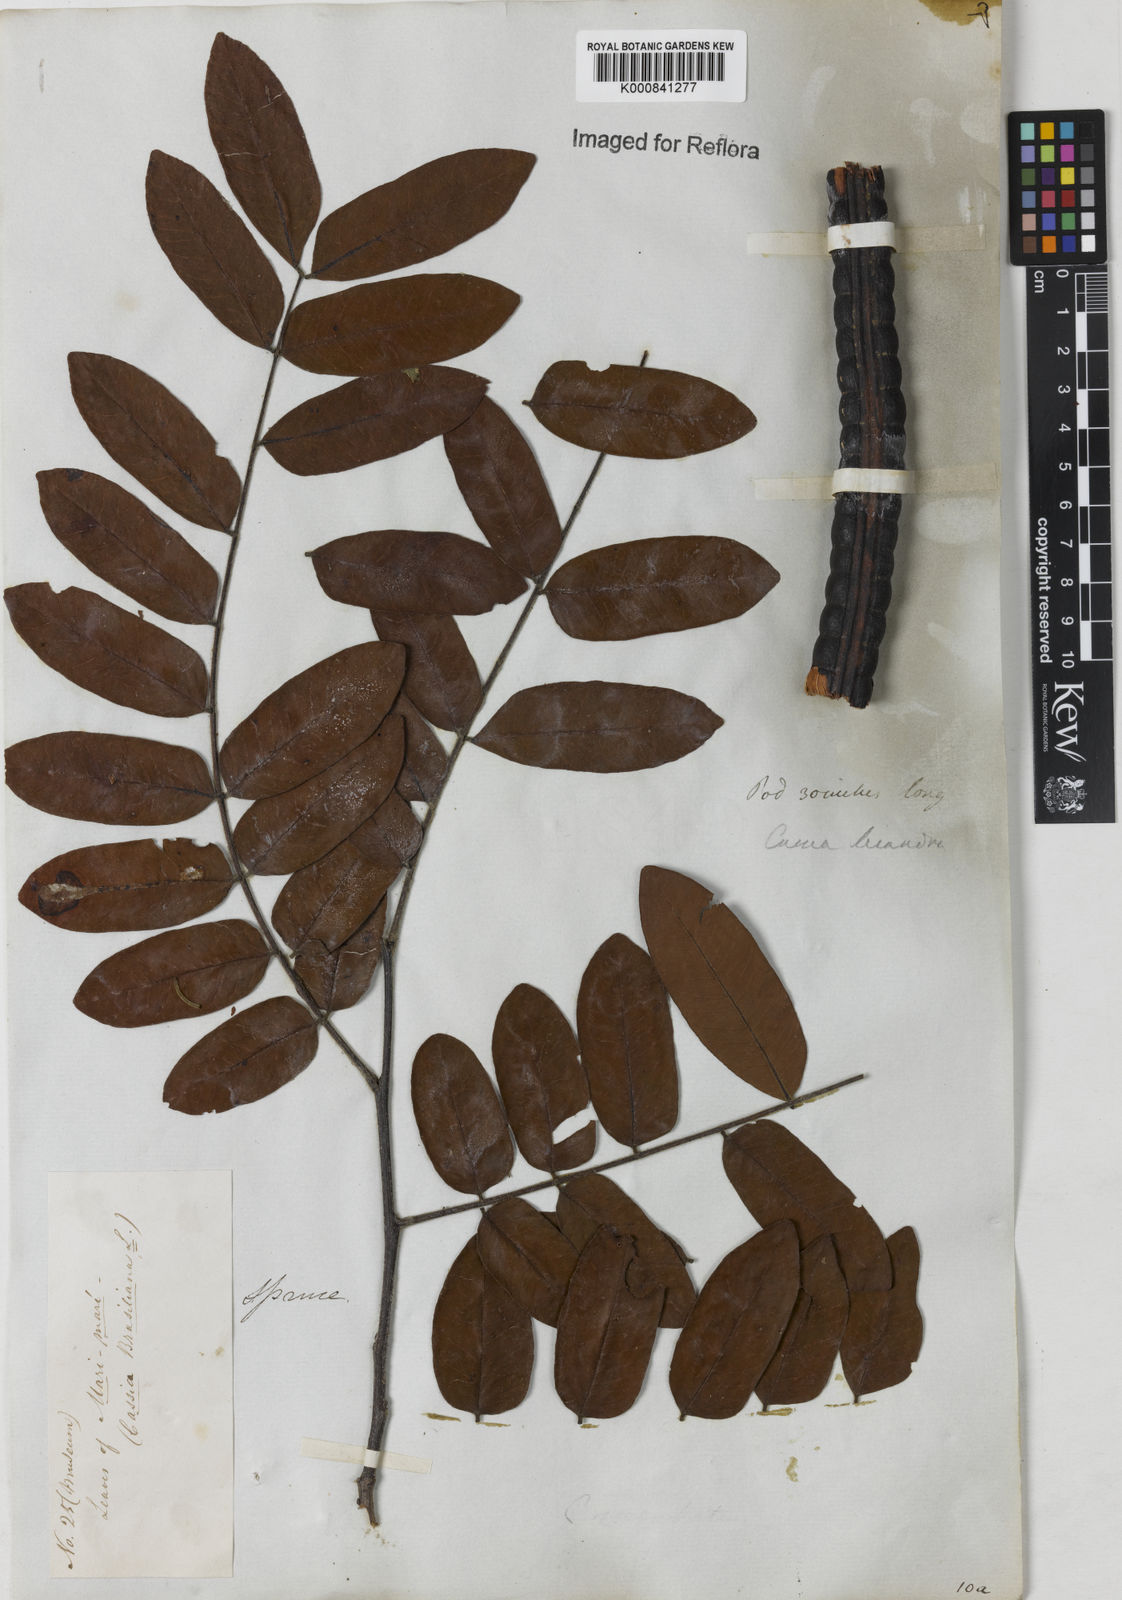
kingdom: Plantae
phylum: Tracheophyta
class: Magnoliopsida
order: Fabales
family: Fabaceae
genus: Cassia
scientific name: Cassia leiandra
